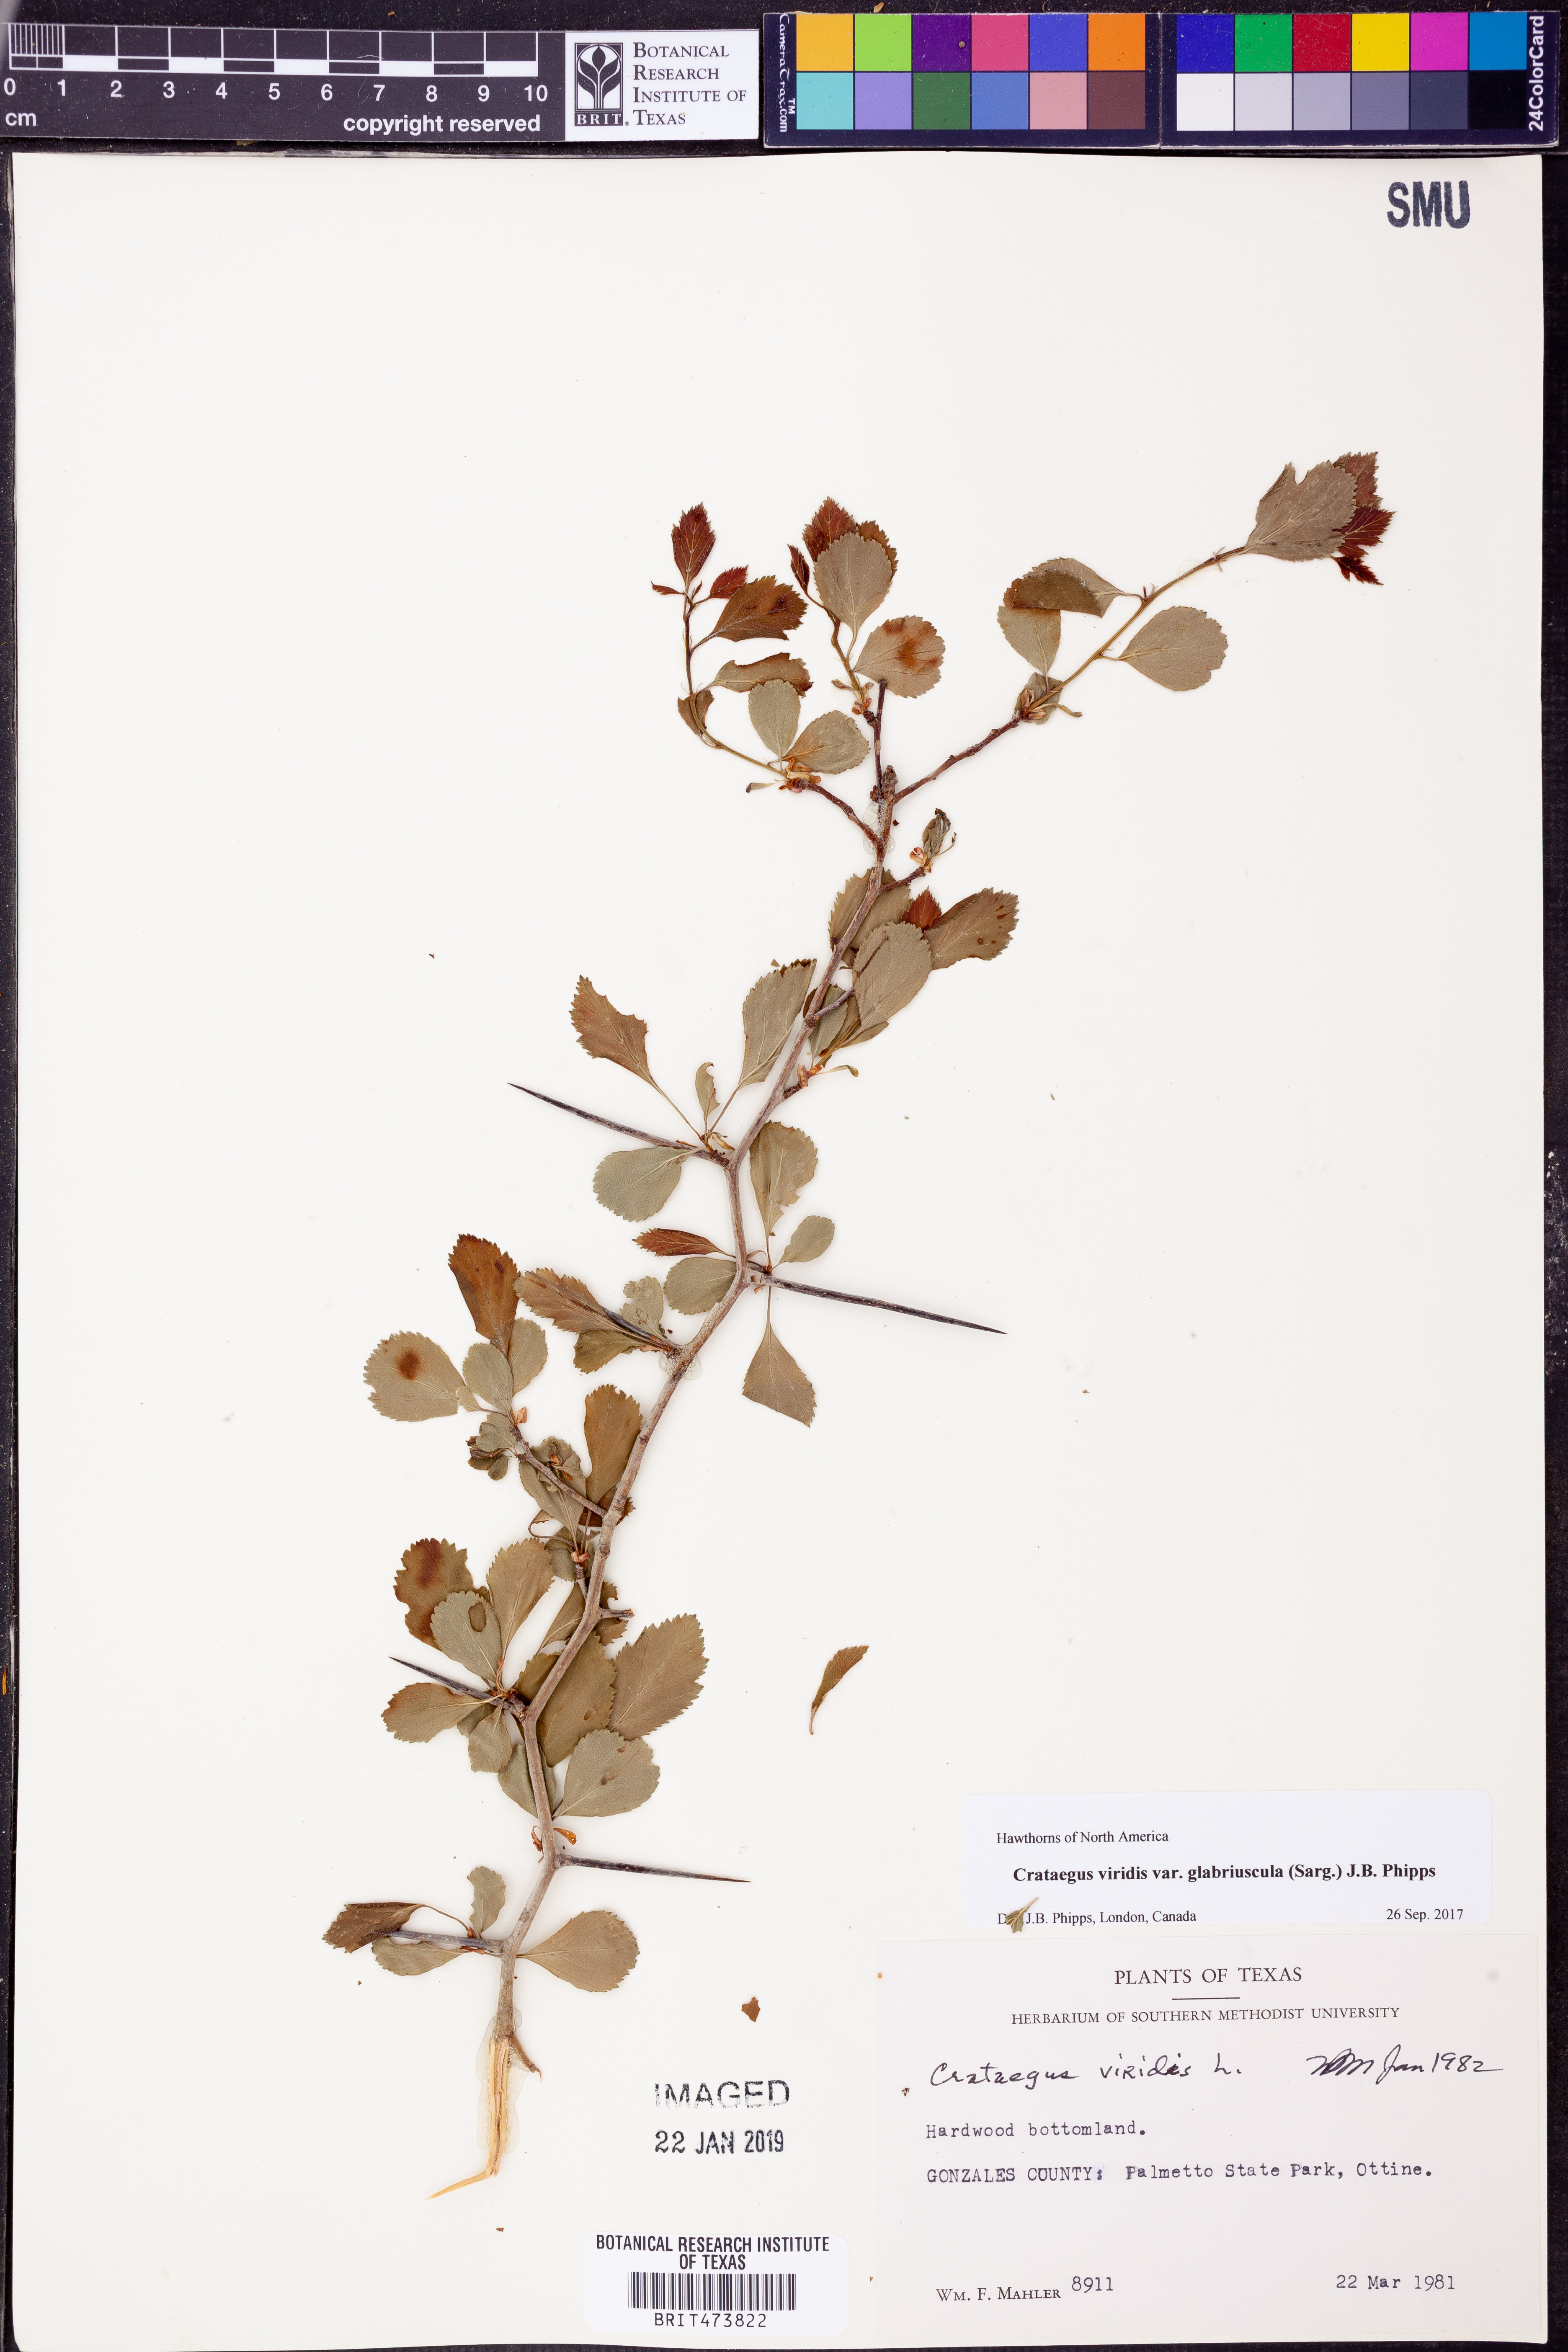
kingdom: Plantae
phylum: Tracheophyta
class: Magnoliopsida
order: Rosales
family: Rosaceae
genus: Crataegus
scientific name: Crataegus viridis
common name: Southernthorn
